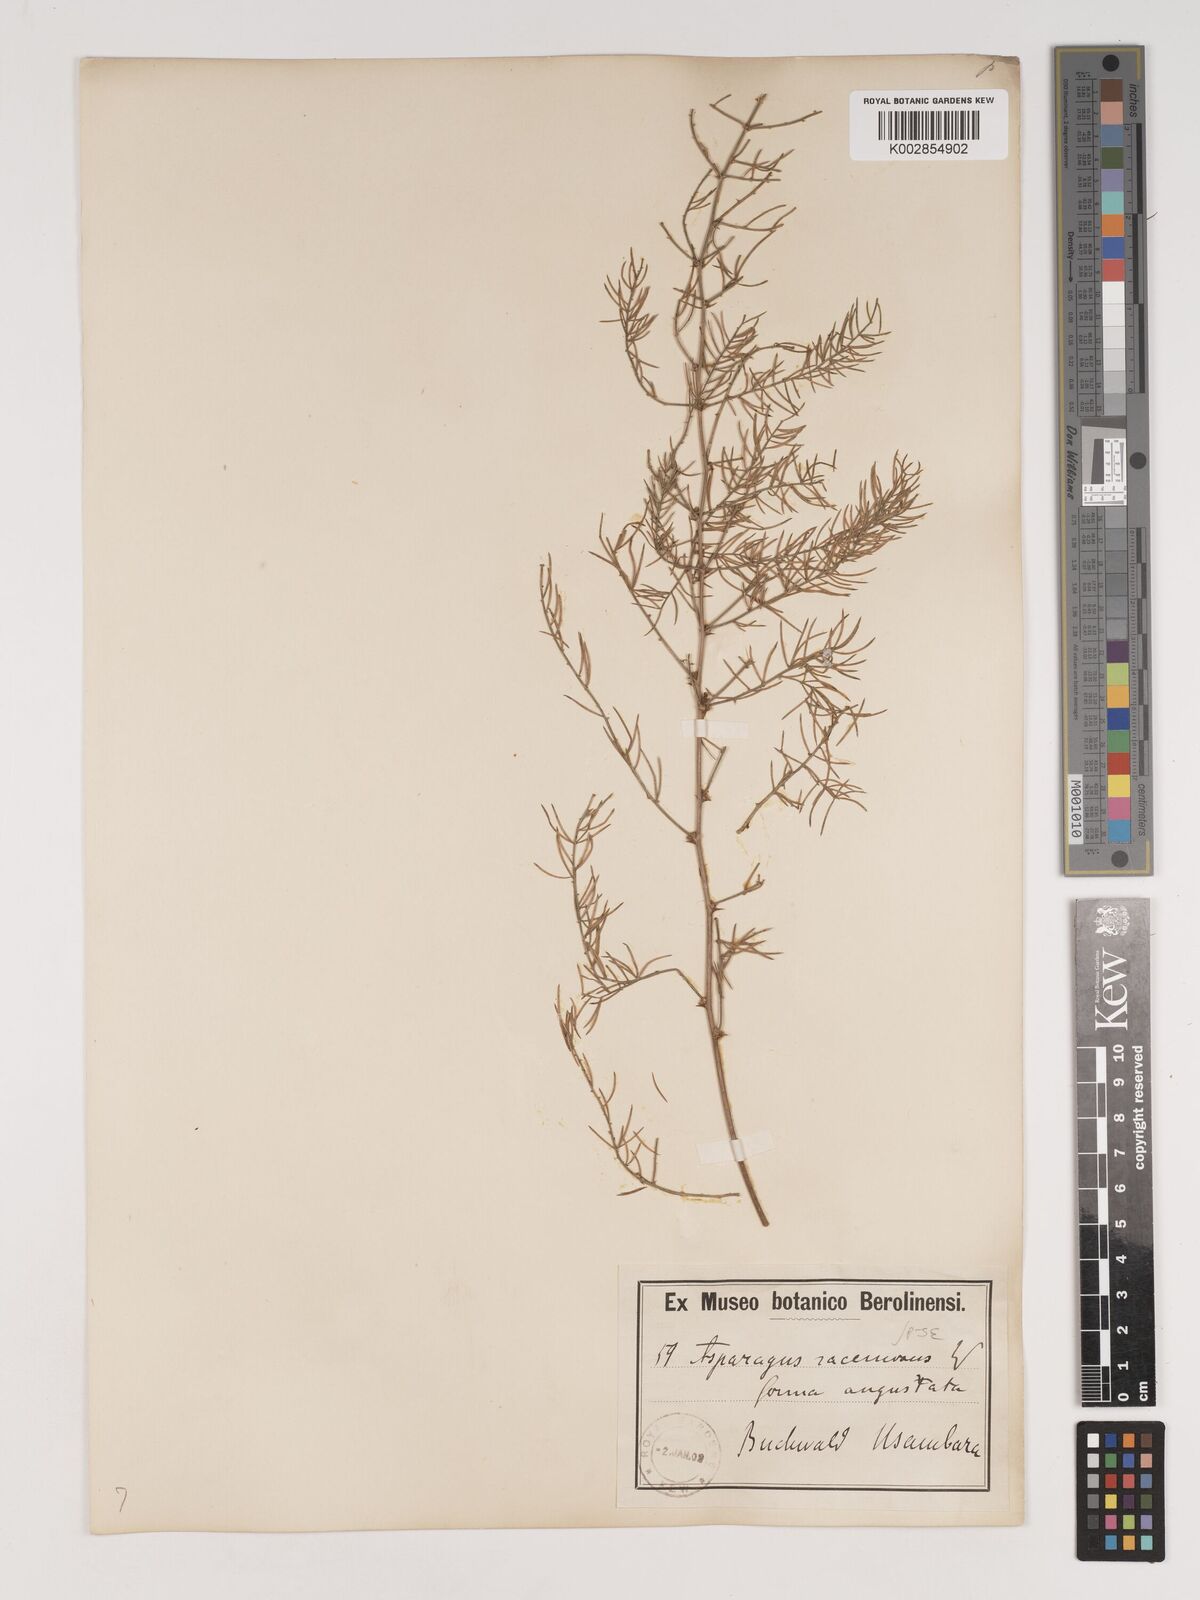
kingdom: Plantae
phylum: Tracheophyta
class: Liliopsida
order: Asparagales
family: Asparagaceae
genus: Asparagus
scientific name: Asparagus racemosus
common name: Asparagus-fern
